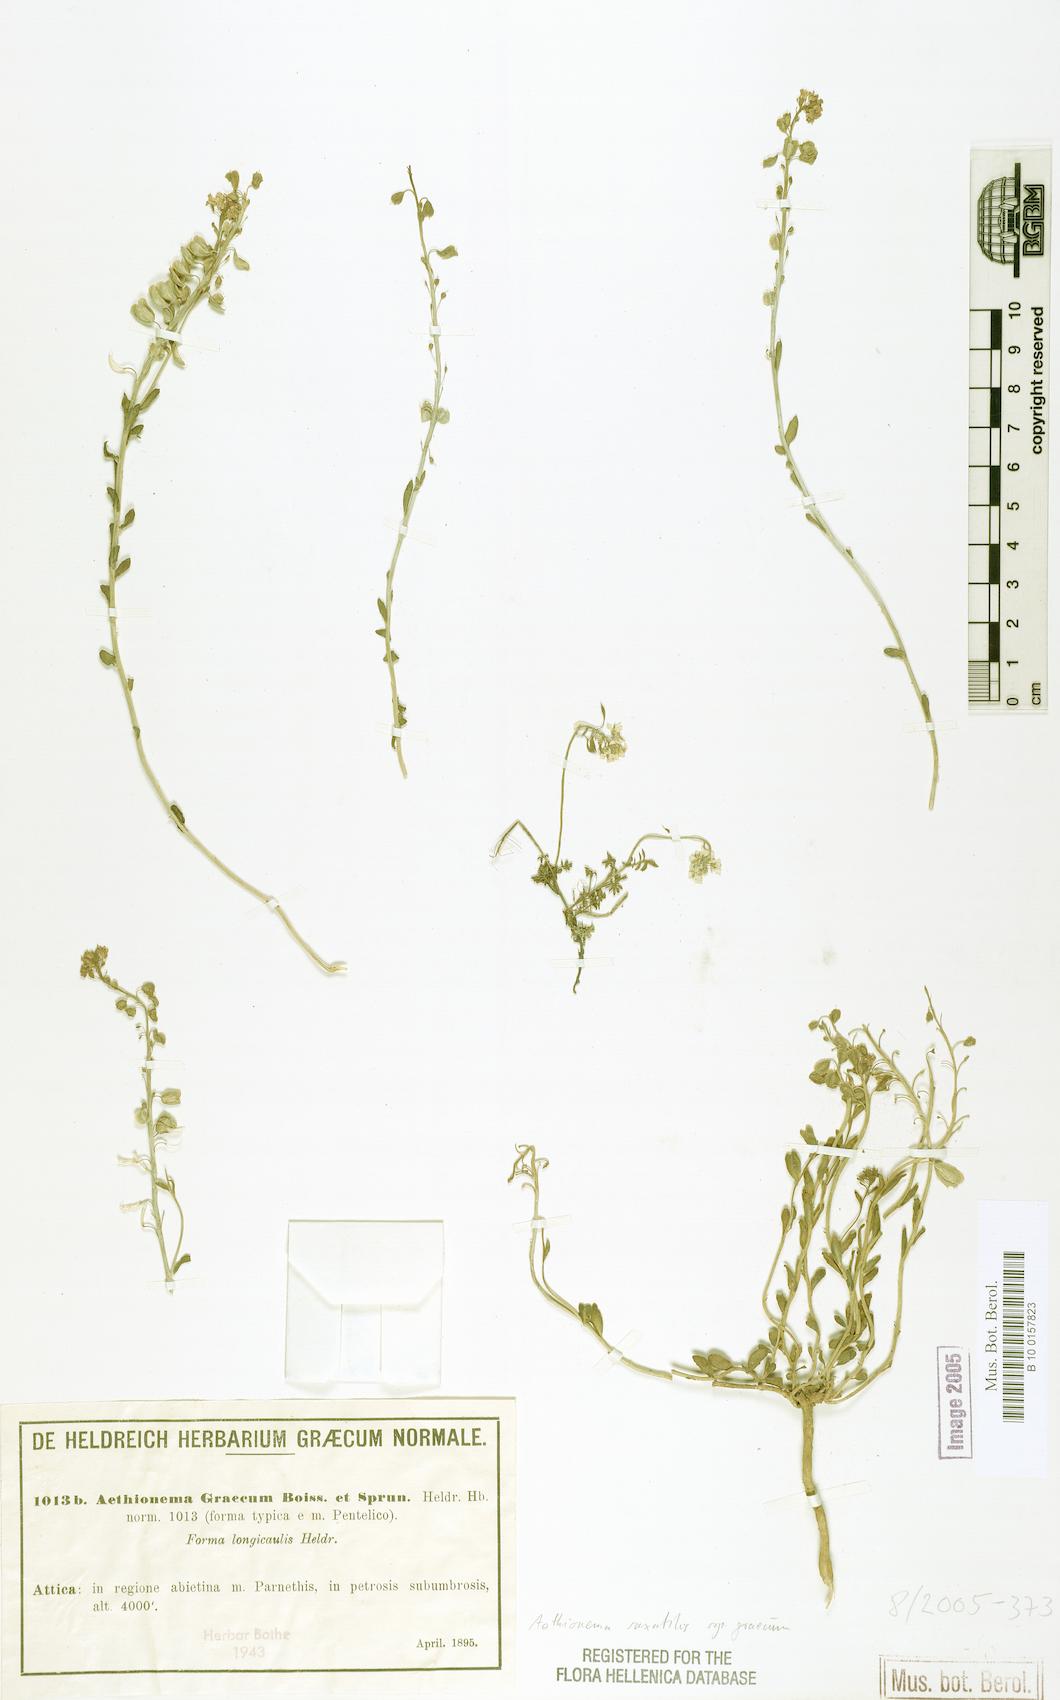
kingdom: Plantae
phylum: Tracheophyta
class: Magnoliopsida
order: Brassicales
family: Brassicaceae
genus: Aethionema
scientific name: Aethionema saxatile
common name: Burnt candytuft
